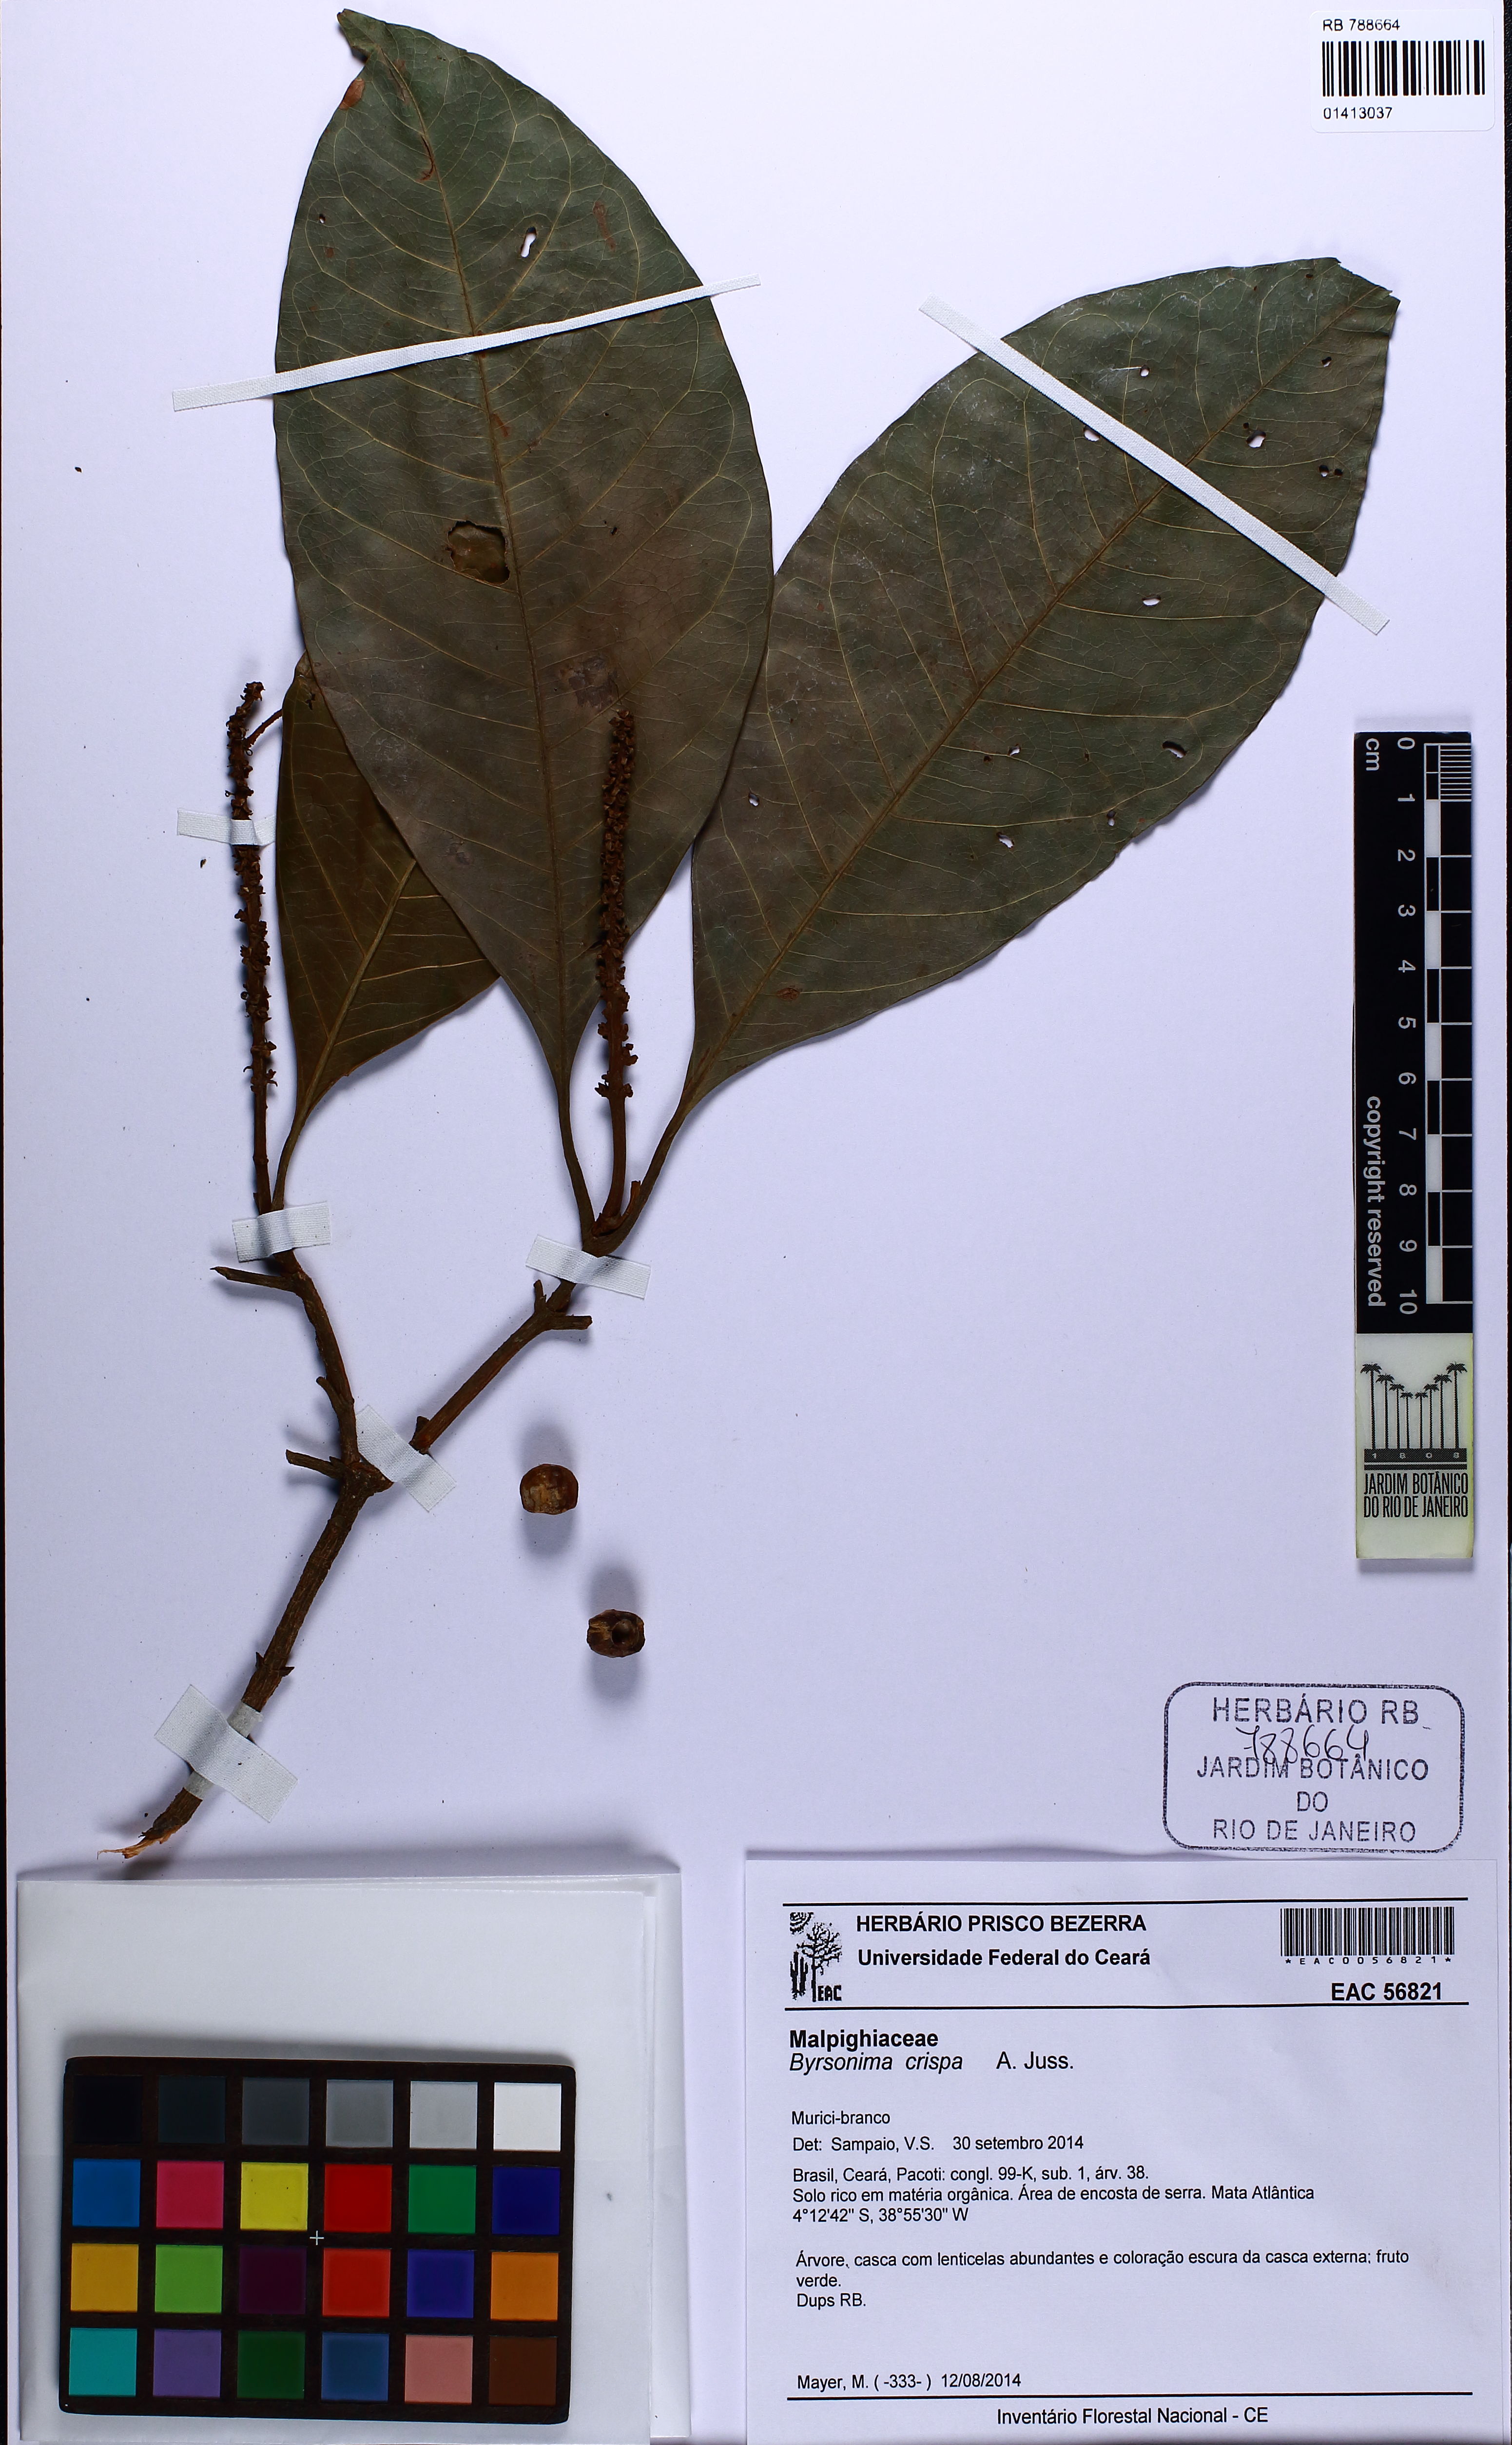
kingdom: Plantae
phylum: Tracheophyta
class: Magnoliopsida
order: Malpighiales
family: Malpighiaceae
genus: Byrsonima
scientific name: Byrsonima crispa
